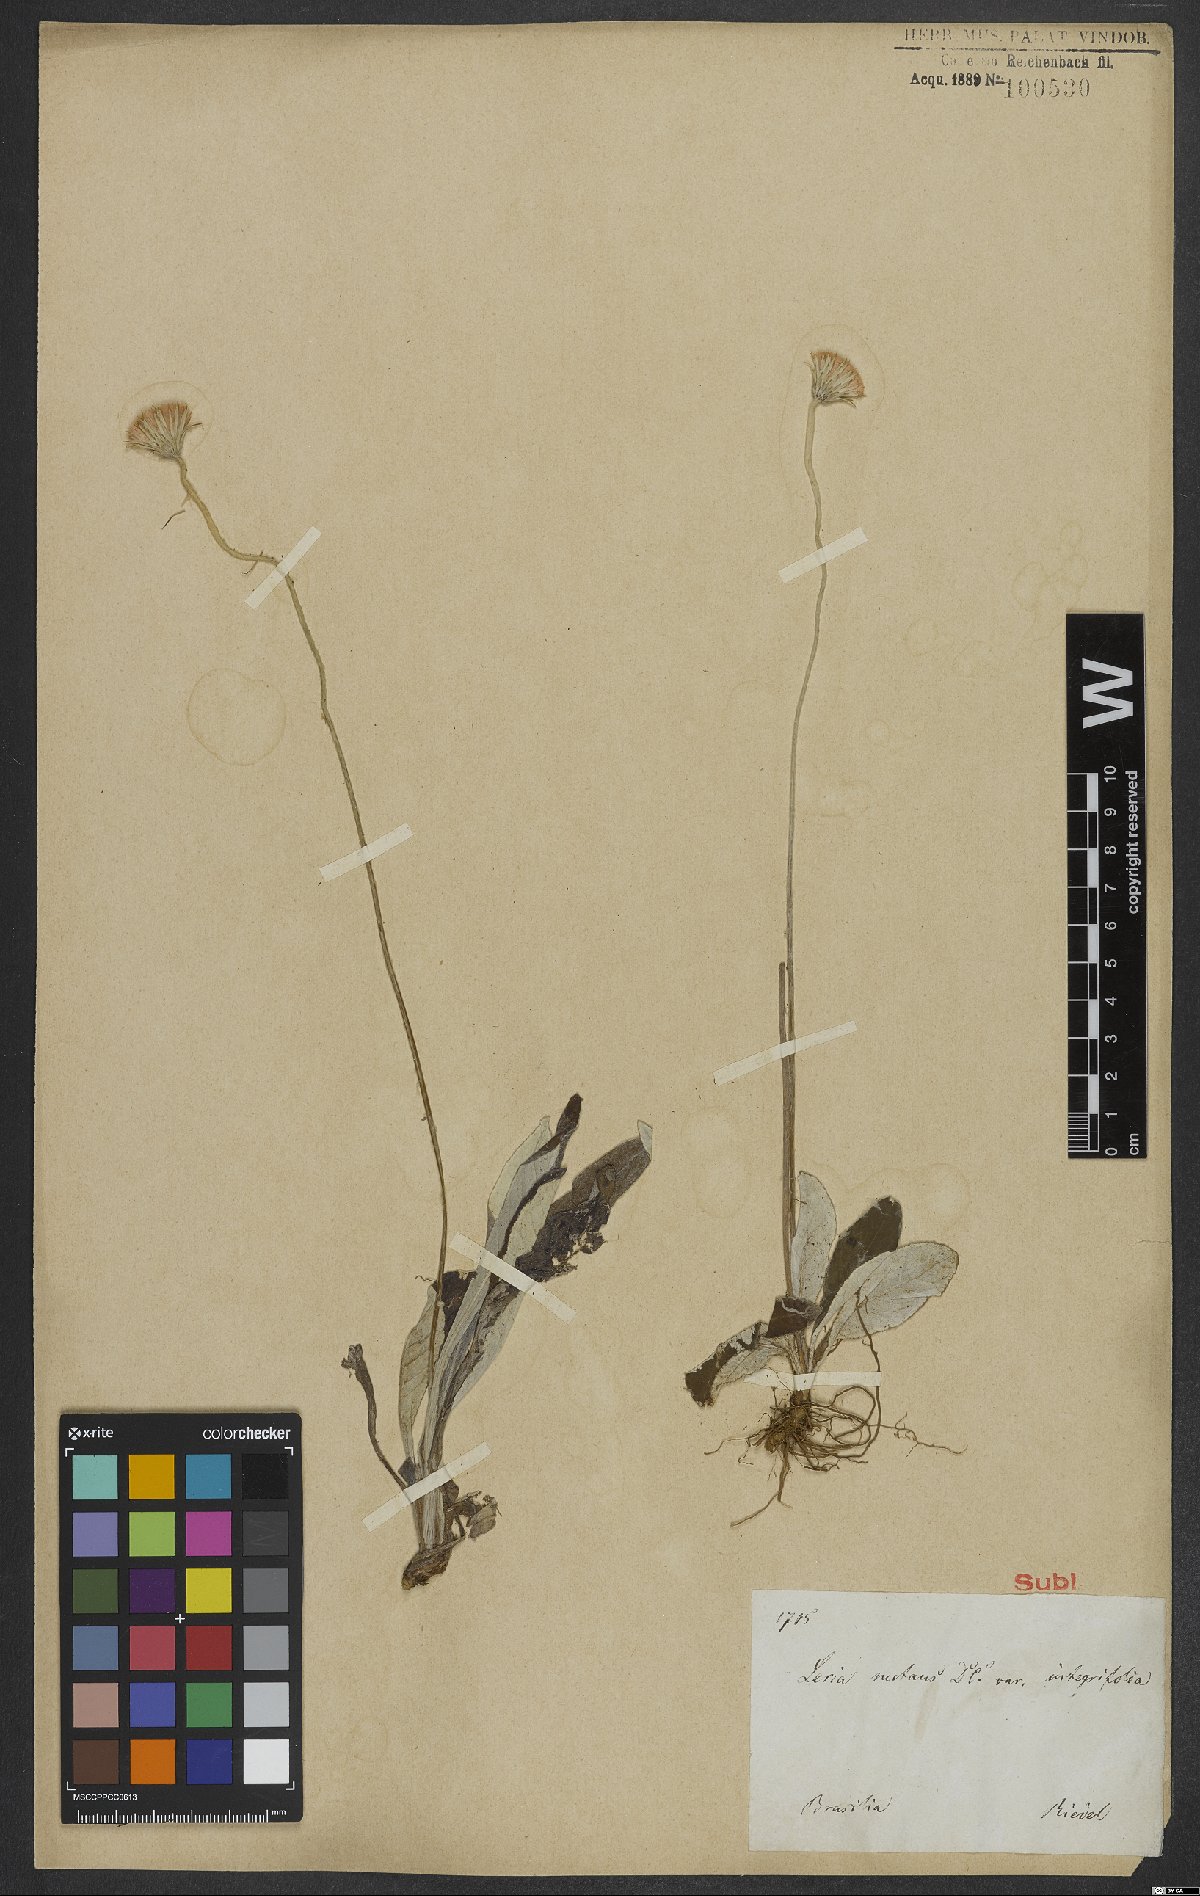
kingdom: Plantae
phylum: Tracheophyta
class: Magnoliopsida
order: Asterales
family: Asteraceae
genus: Chaptalia
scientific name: Chaptalia nutans
